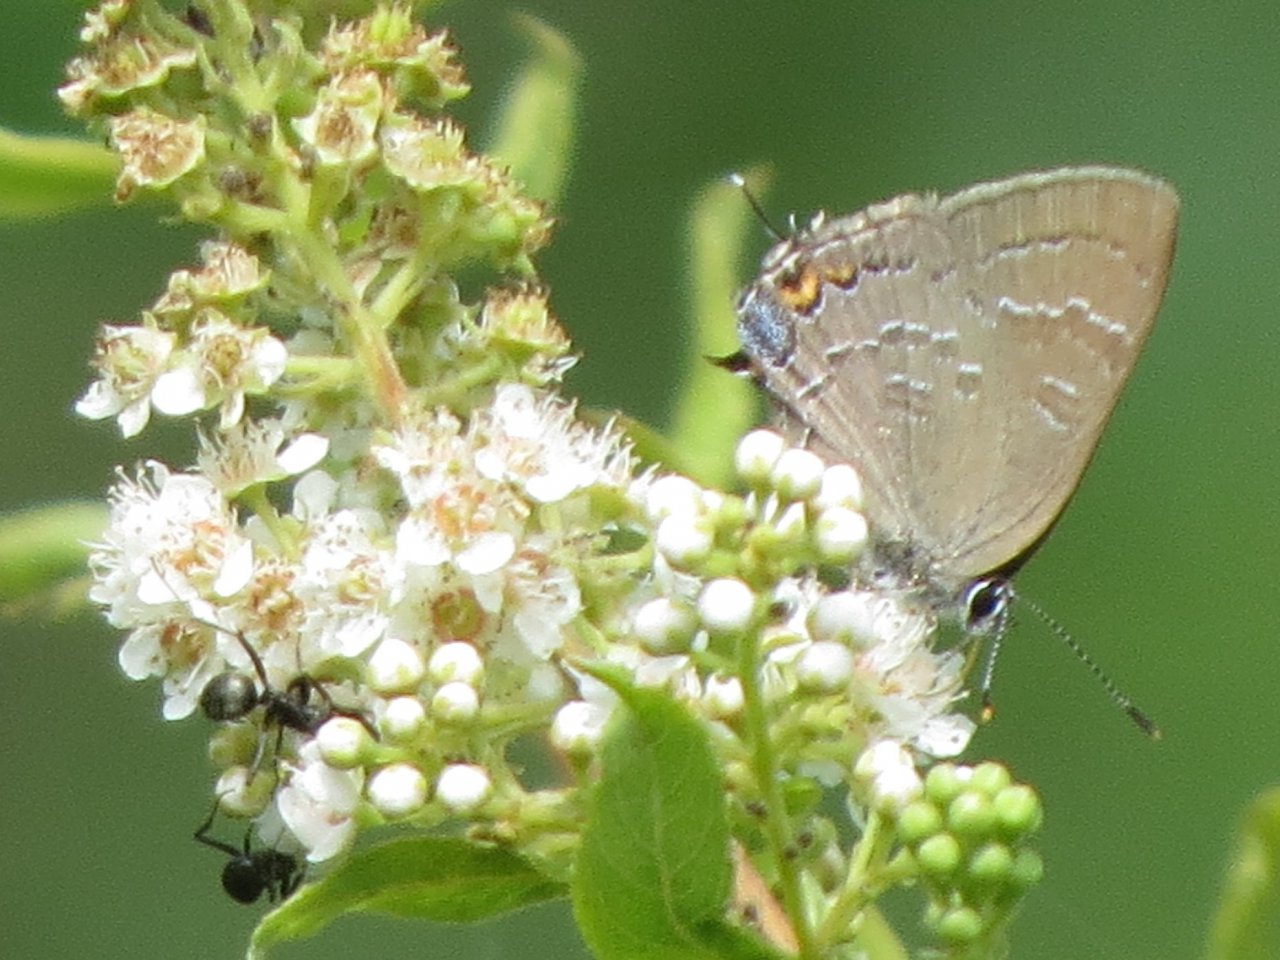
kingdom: Animalia
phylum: Arthropoda
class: Insecta
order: Lepidoptera
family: Lycaenidae
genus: Satyrium
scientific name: Satyrium calanus
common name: Banded Hairstreak
